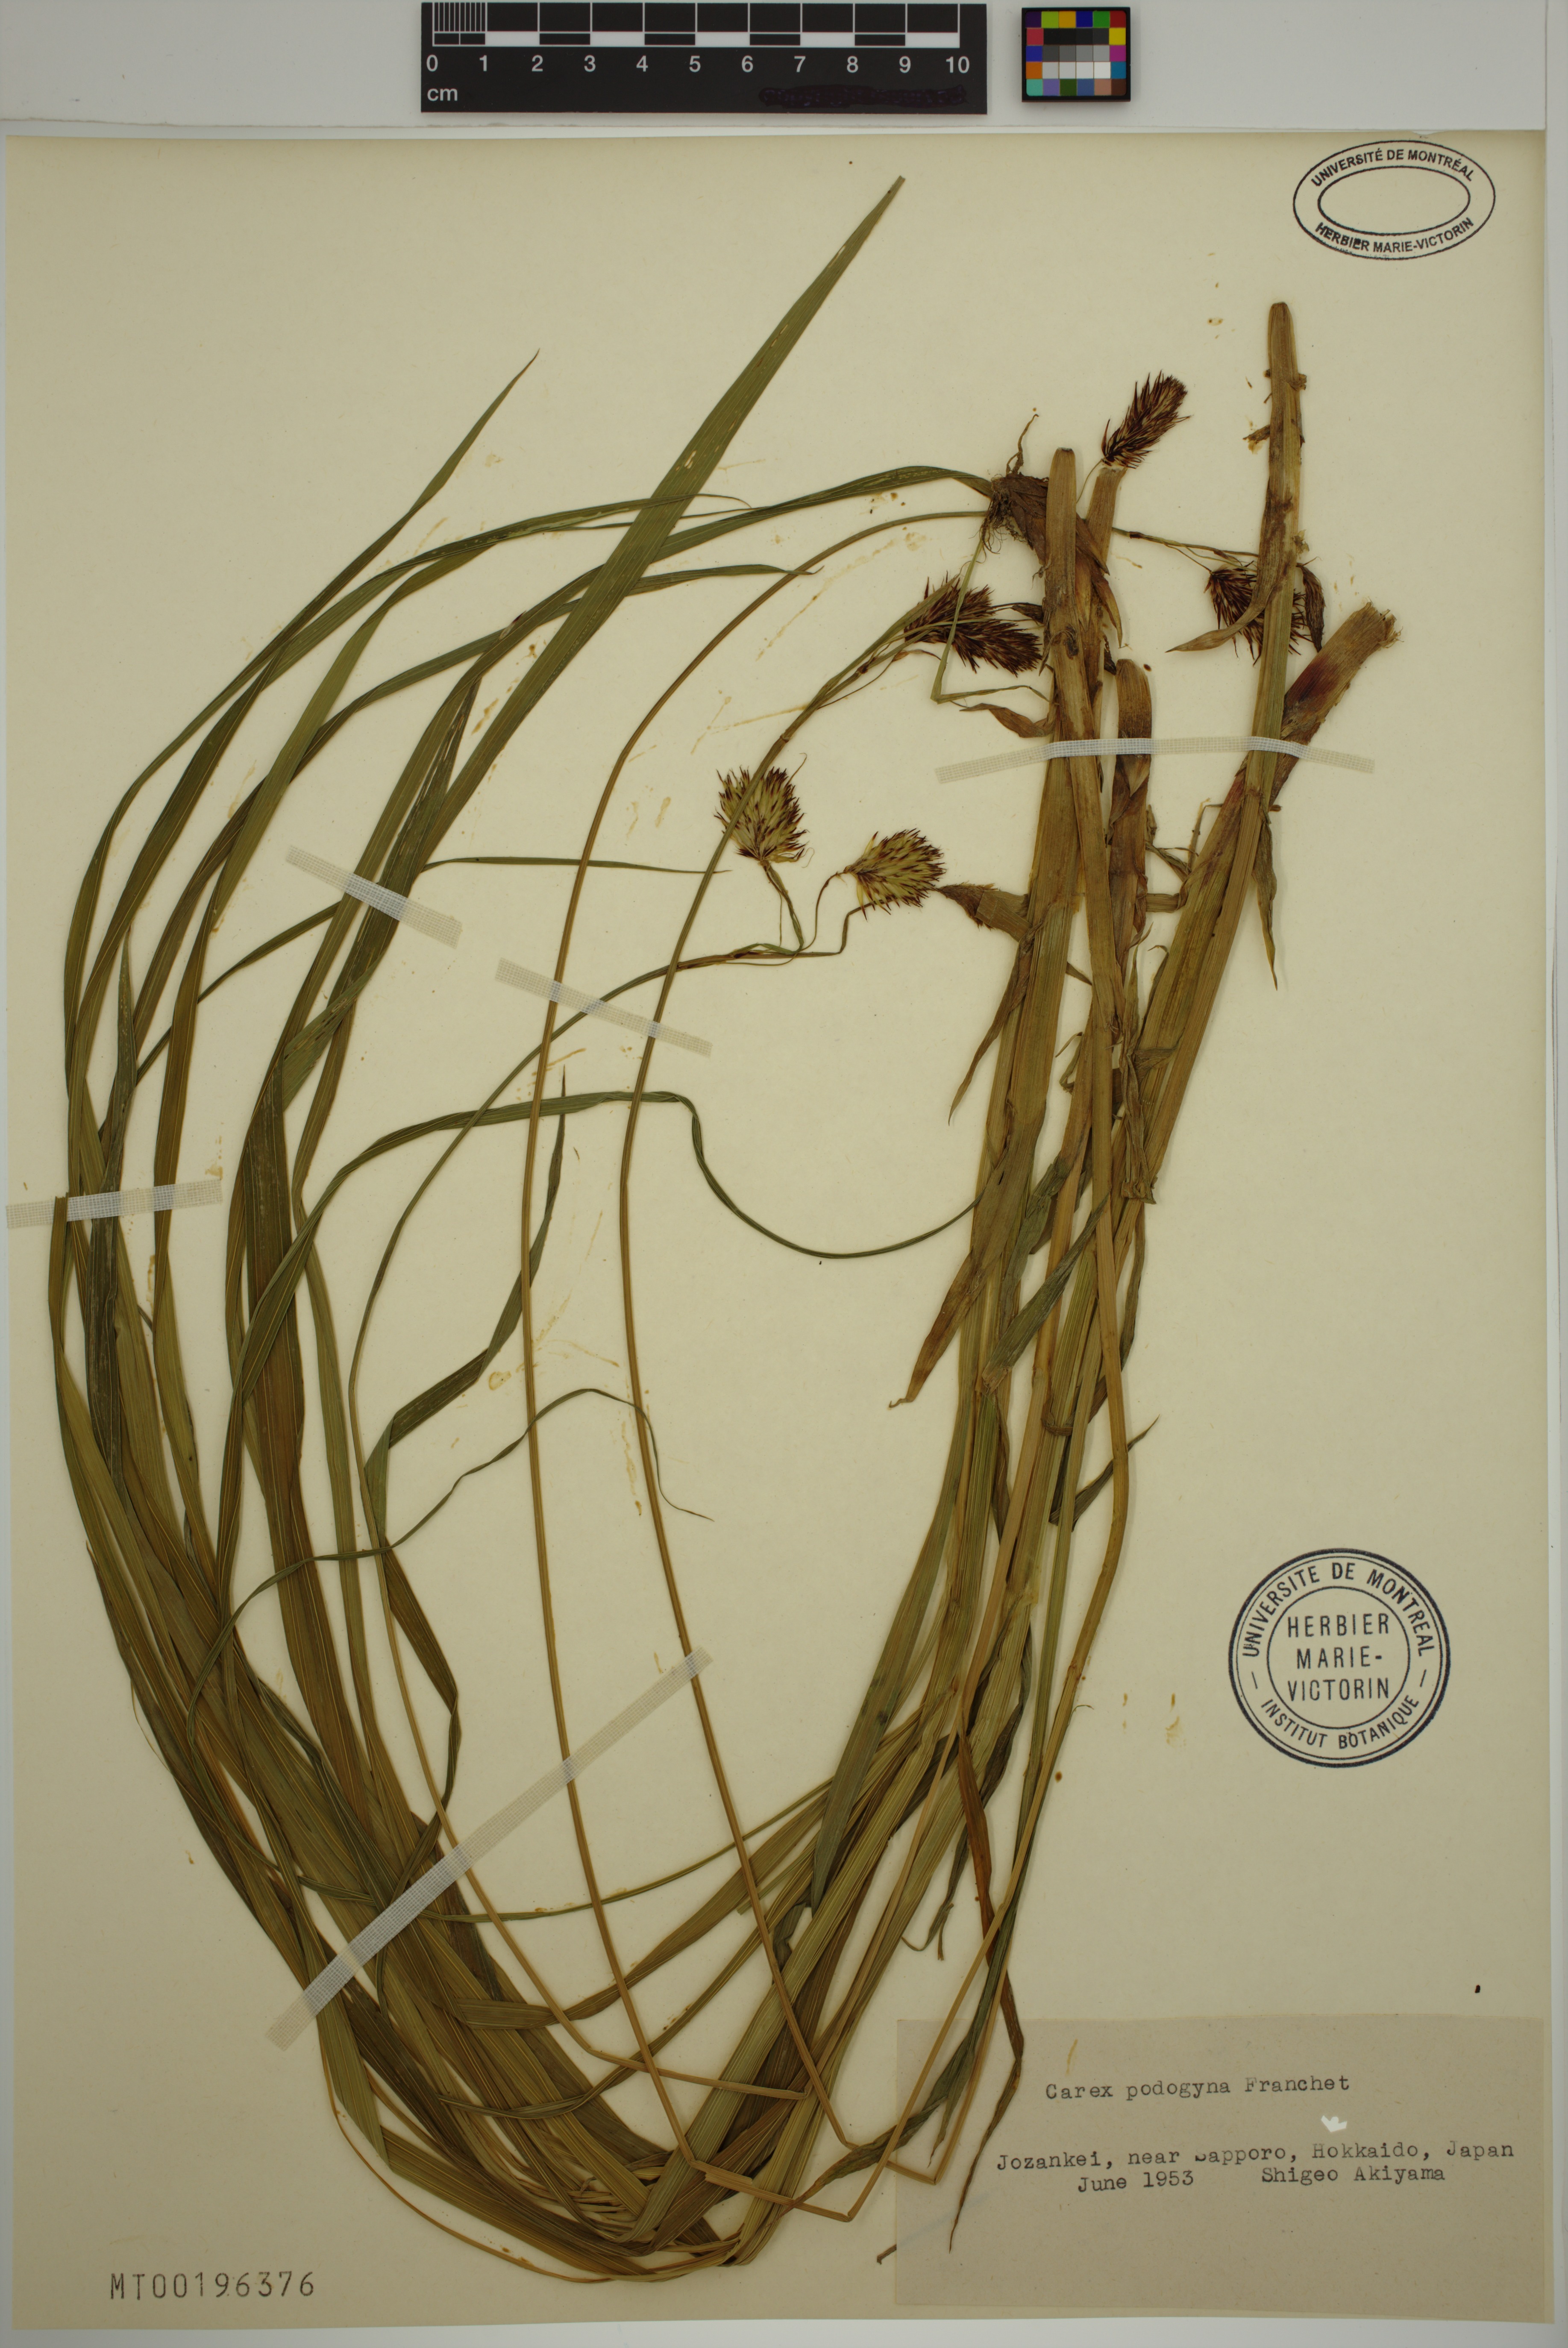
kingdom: Plantae
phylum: Tracheophyta
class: Liliopsida
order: Poales
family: Cyperaceae
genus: Carex
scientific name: Carex podogyna
